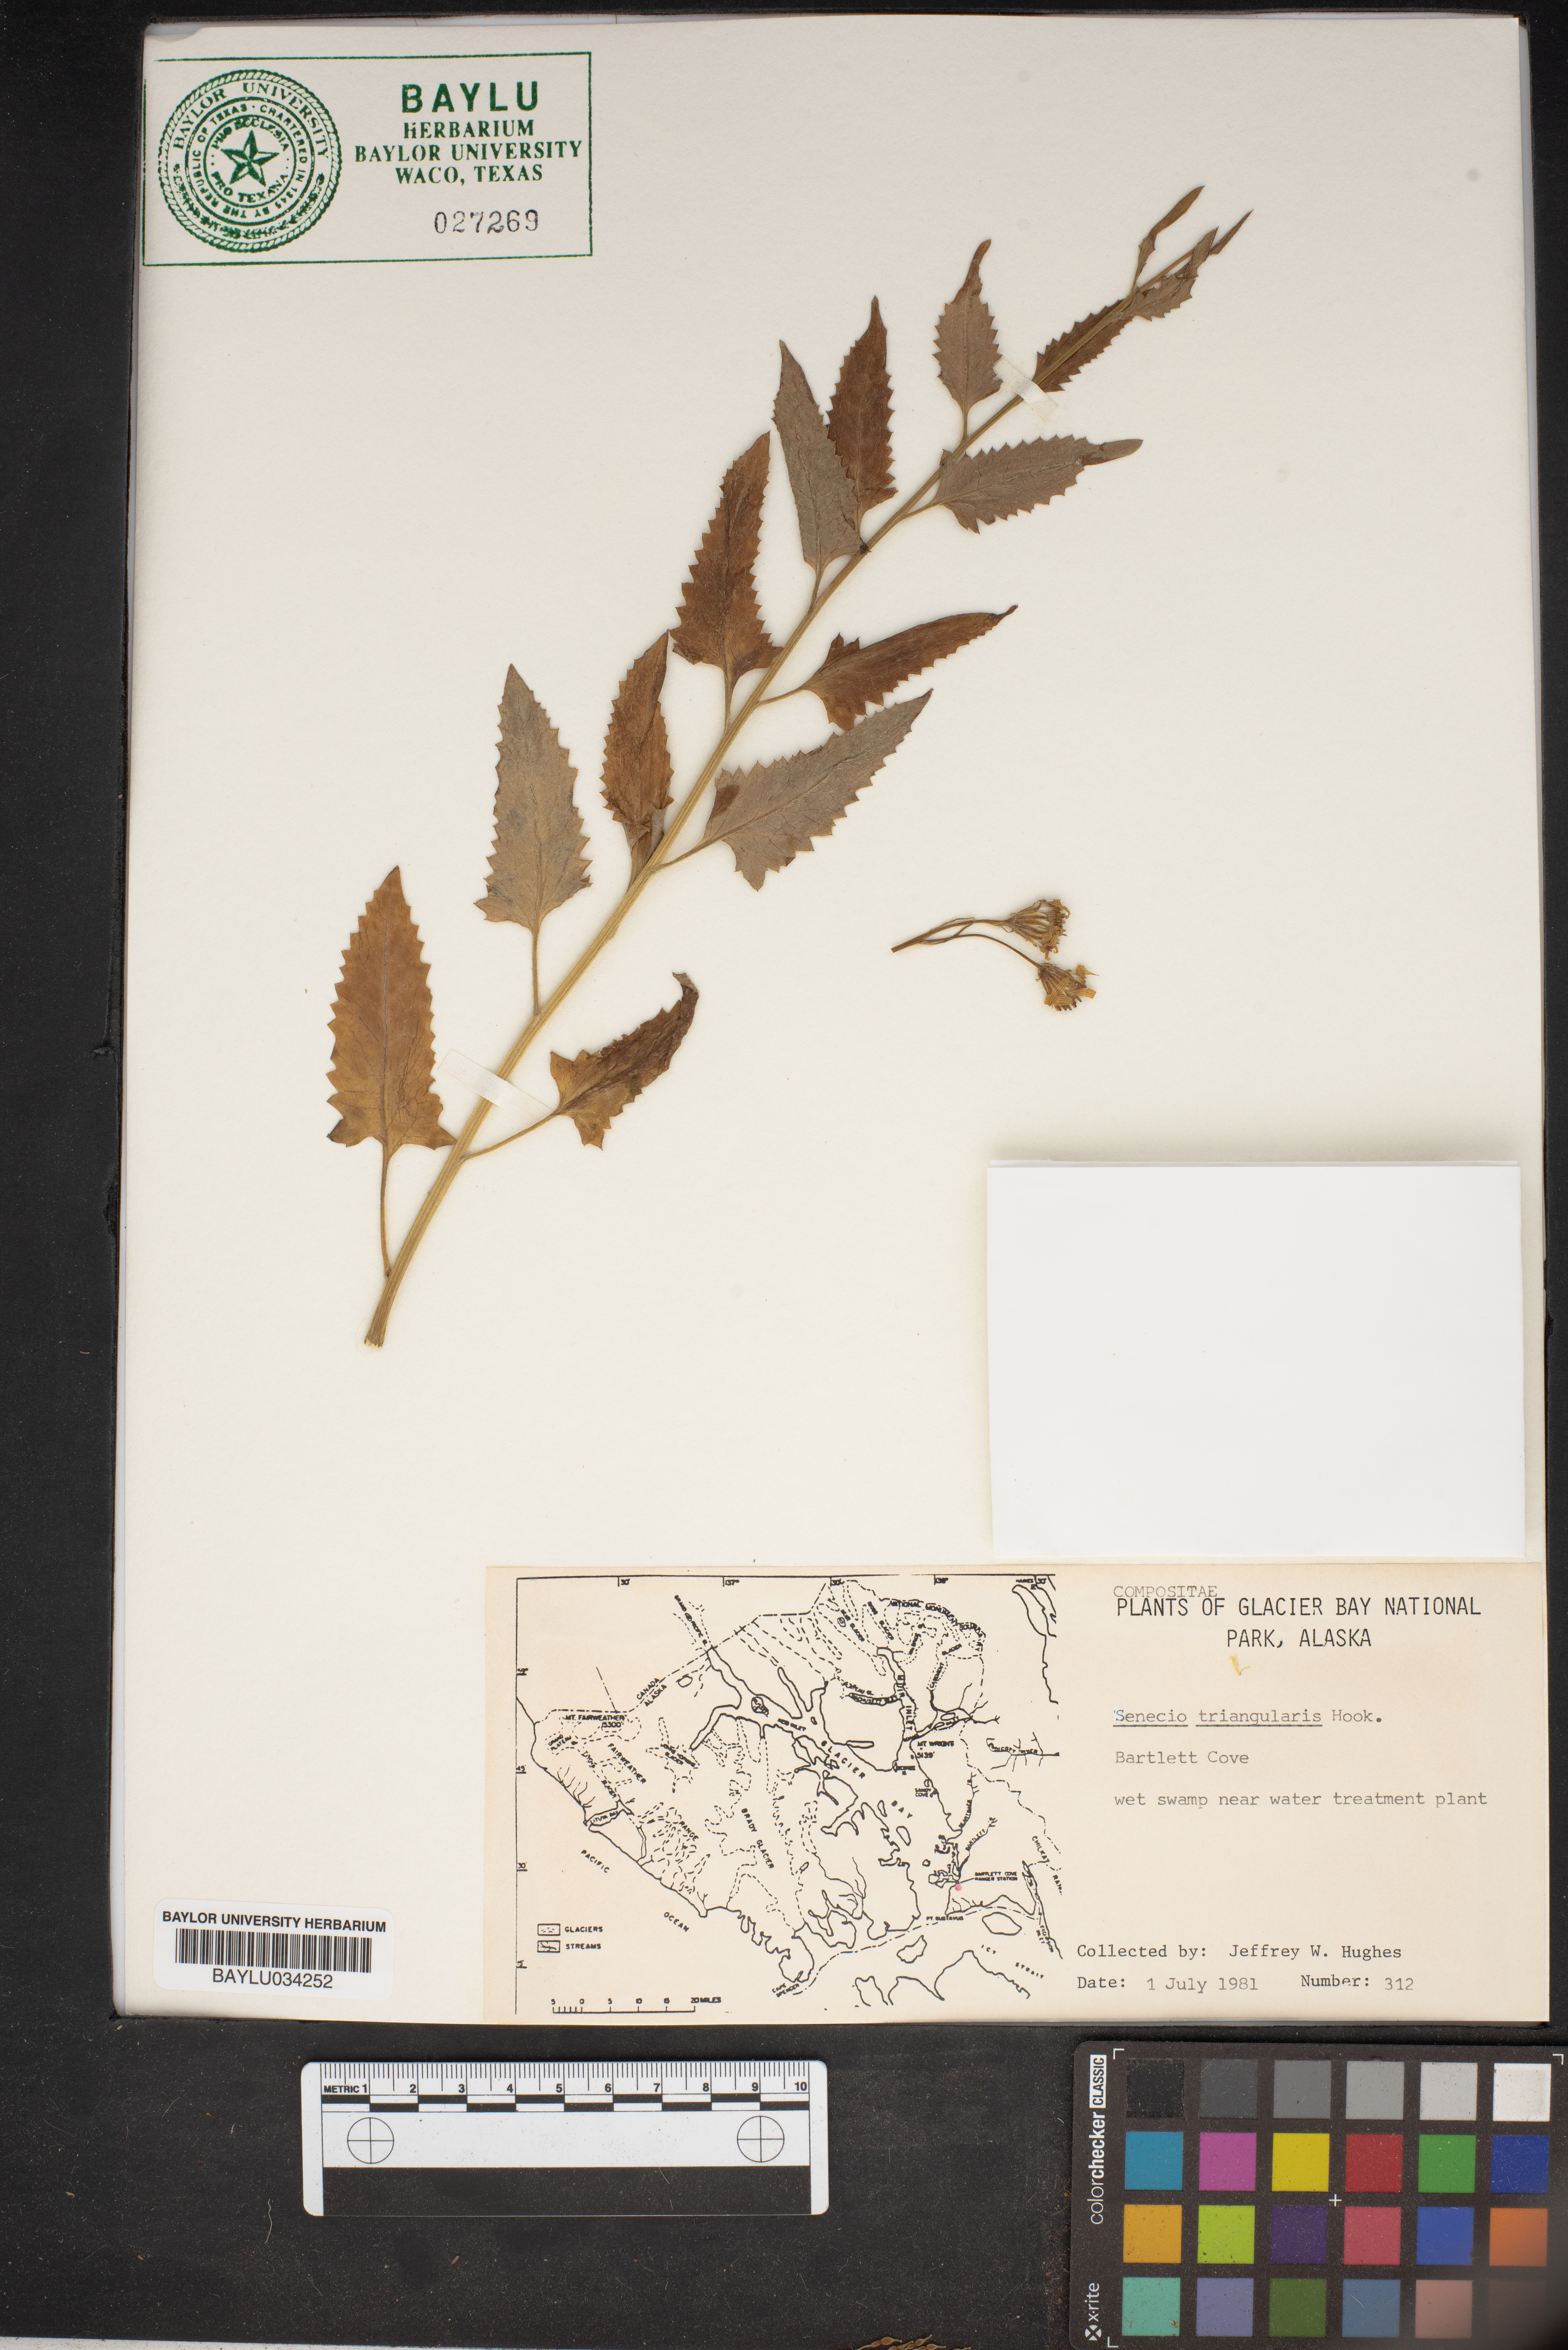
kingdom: Plantae
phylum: Tracheophyta
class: Magnoliopsida
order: Asterales
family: Asteraceae
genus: Senecio
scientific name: Senecio triangularis
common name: Arrowleaf butterweed
